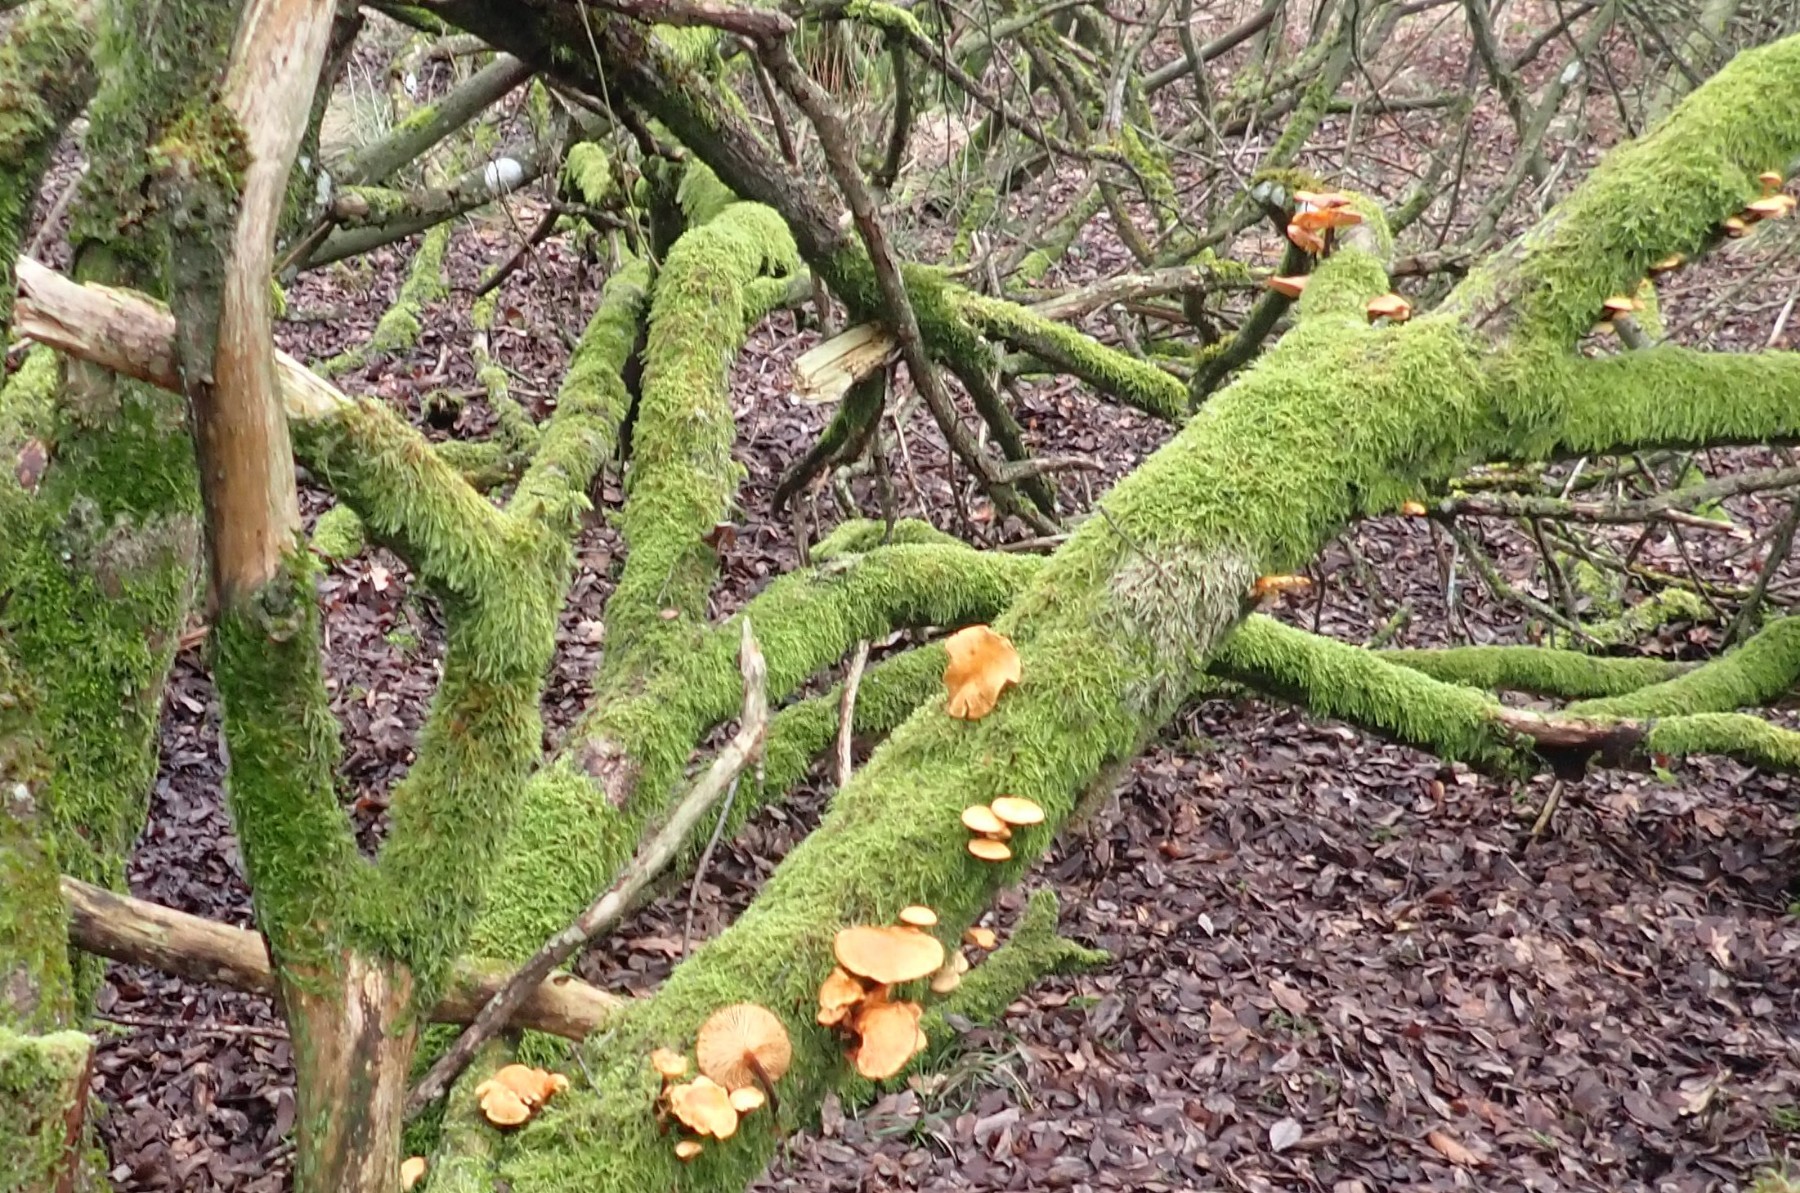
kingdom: Fungi
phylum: Basidiomycota
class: Agaricomycetes
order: Agaricales
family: Physalacriaceae
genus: Flammulina
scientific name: Flammulina
